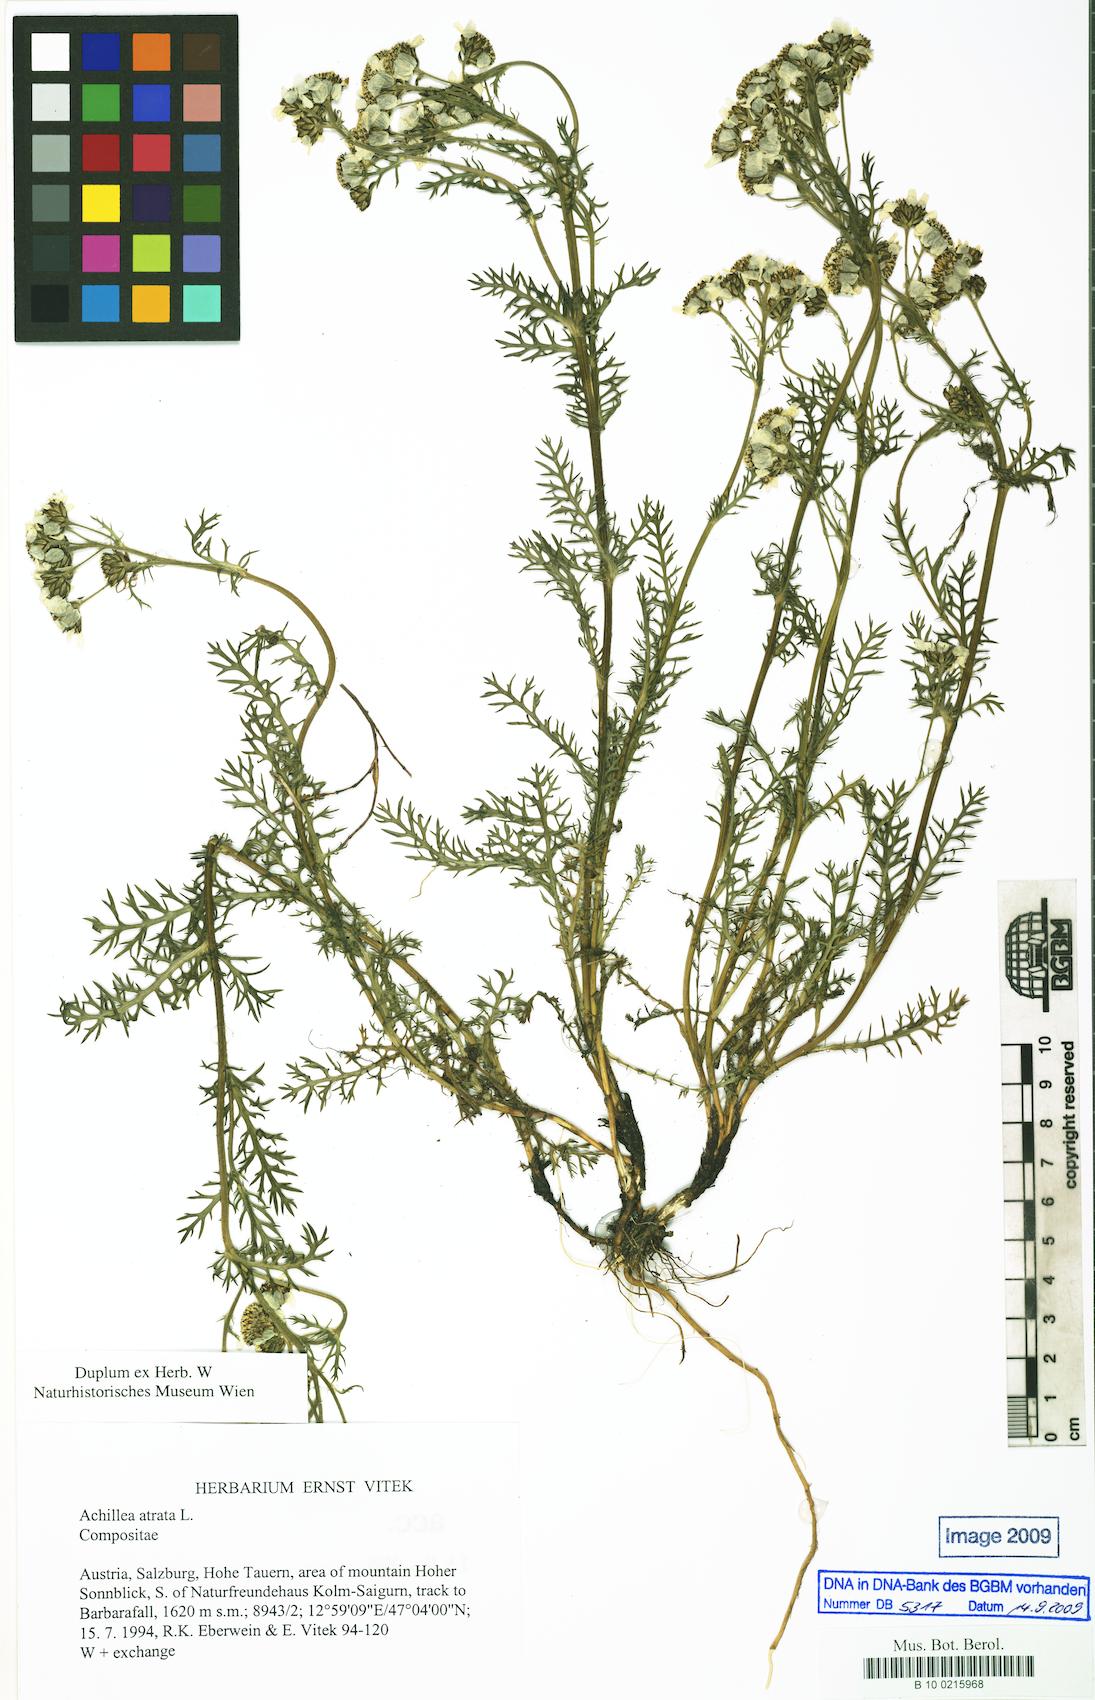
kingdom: Plantae
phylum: Tracheophyta
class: Magnoliopsida
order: Asterales
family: Asteraceae
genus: Achillea
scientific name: Achillea atrata
